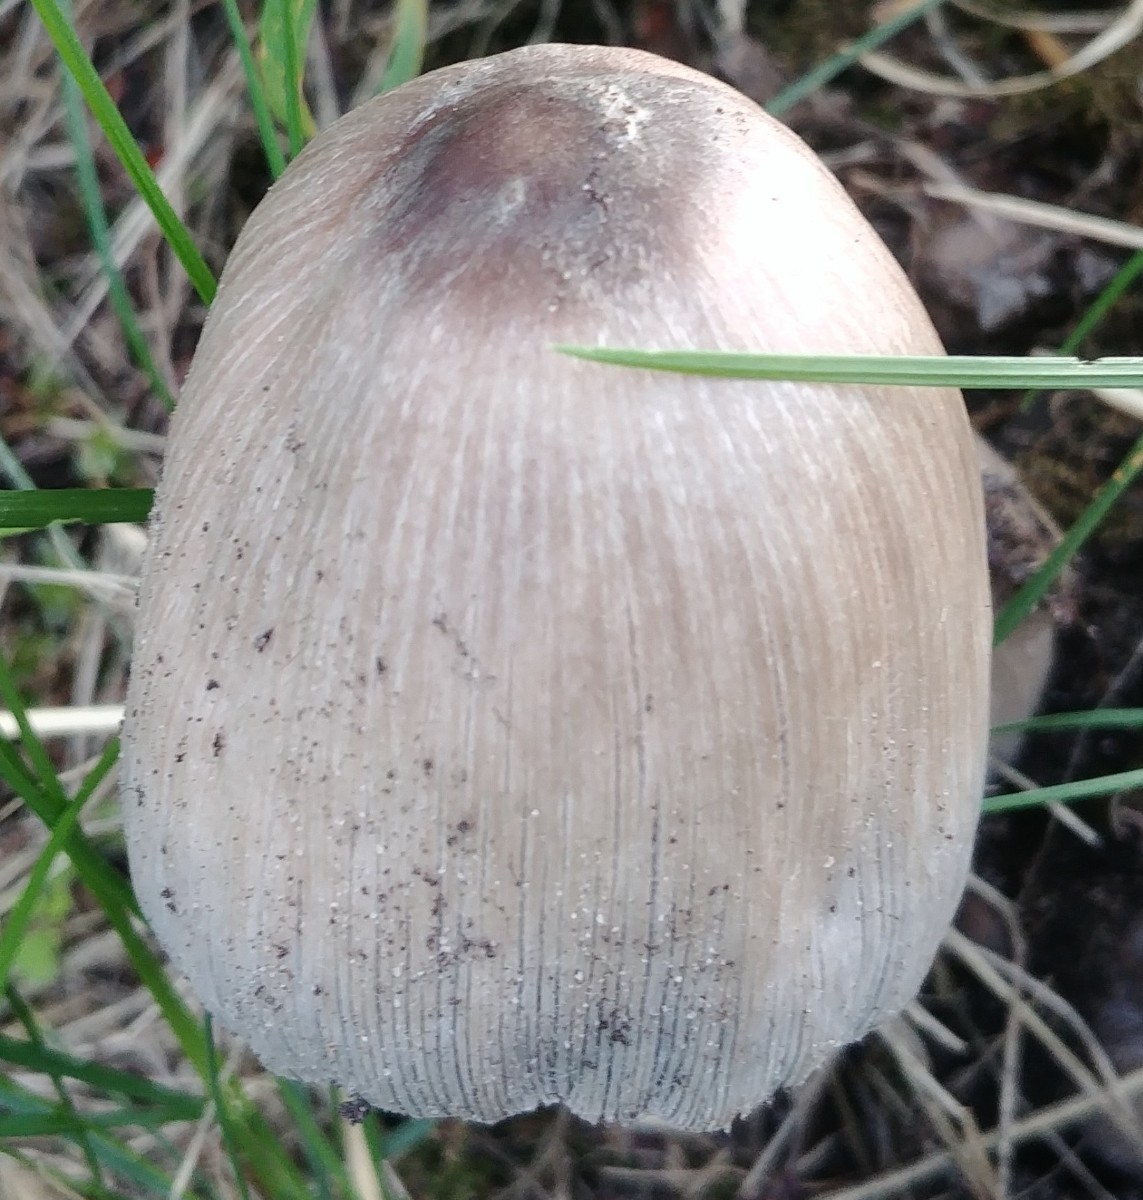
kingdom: Fungi
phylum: Basidiomycota
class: Agaricomycetes
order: Agaricales
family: Psathyrellaceae
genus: Coprinopsis
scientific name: Coprinopsis atramentaria
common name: almindelig blækhat
